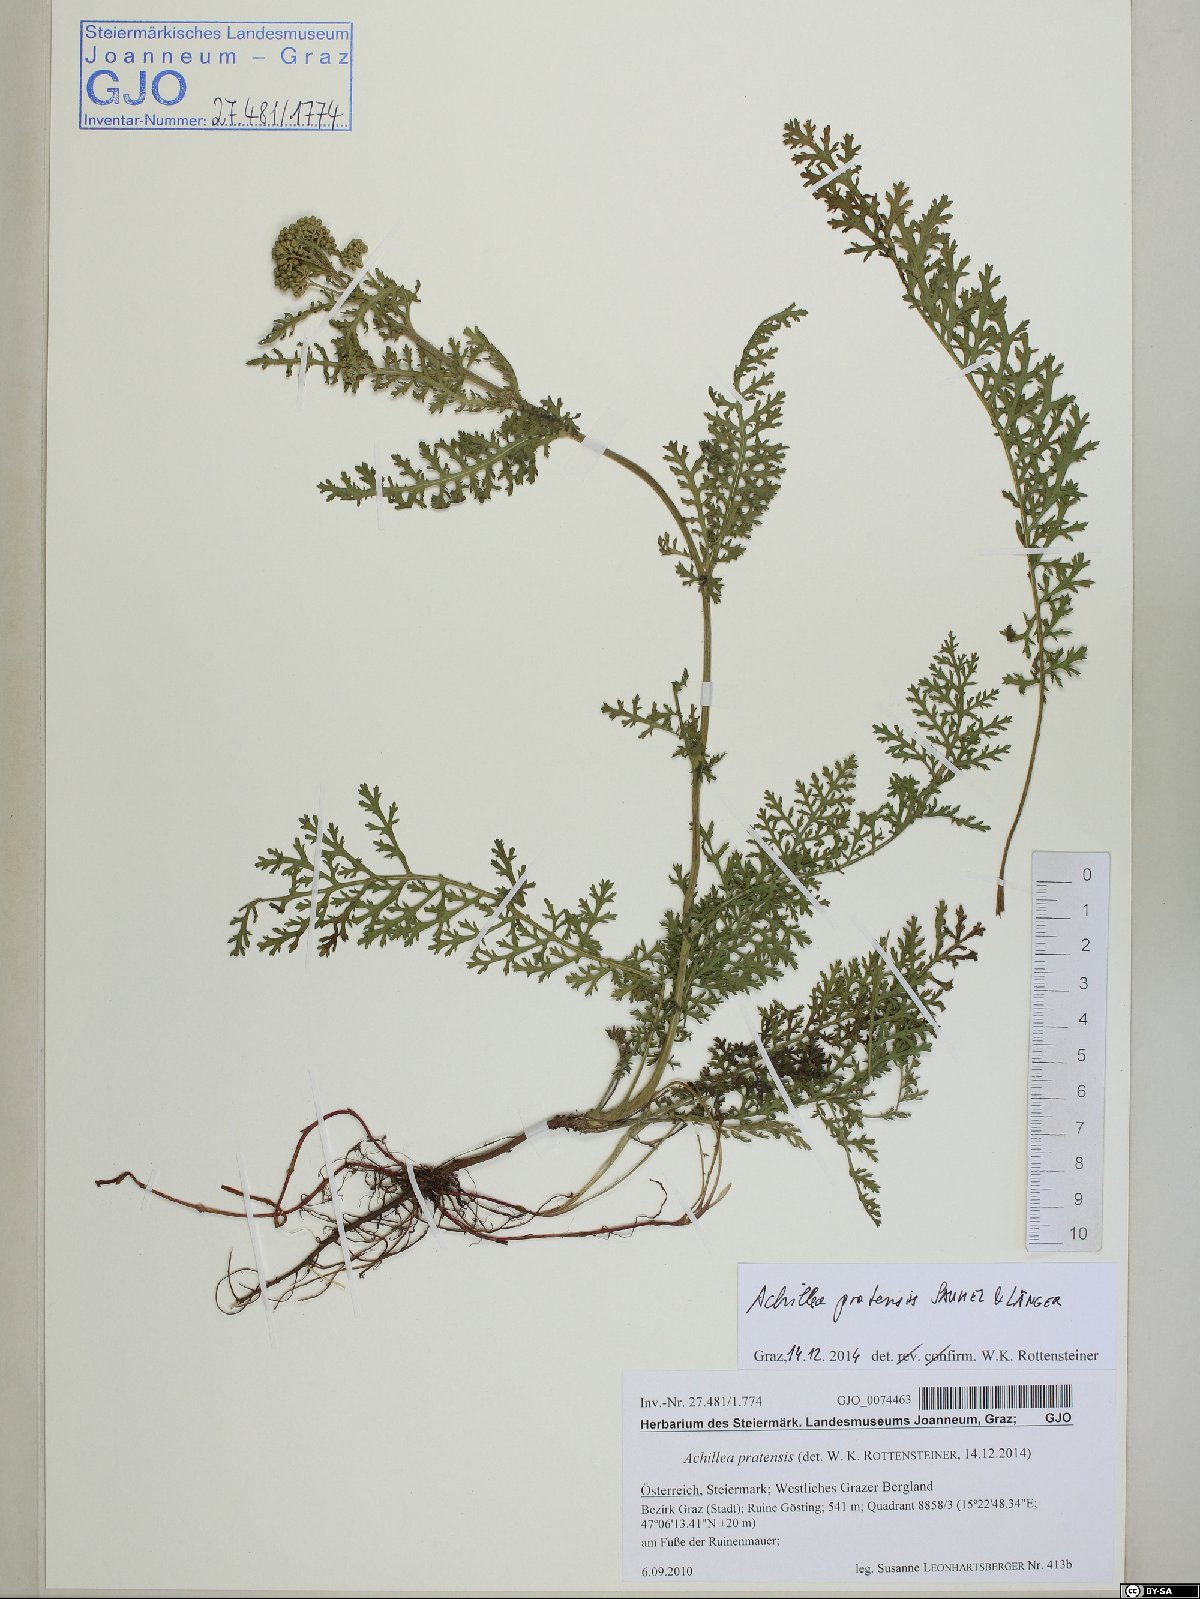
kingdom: Plantae
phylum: Tracheophyta
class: Magnoliopsida
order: Asterales
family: Asteraceae
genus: Achillea
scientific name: Achillea pratensis
